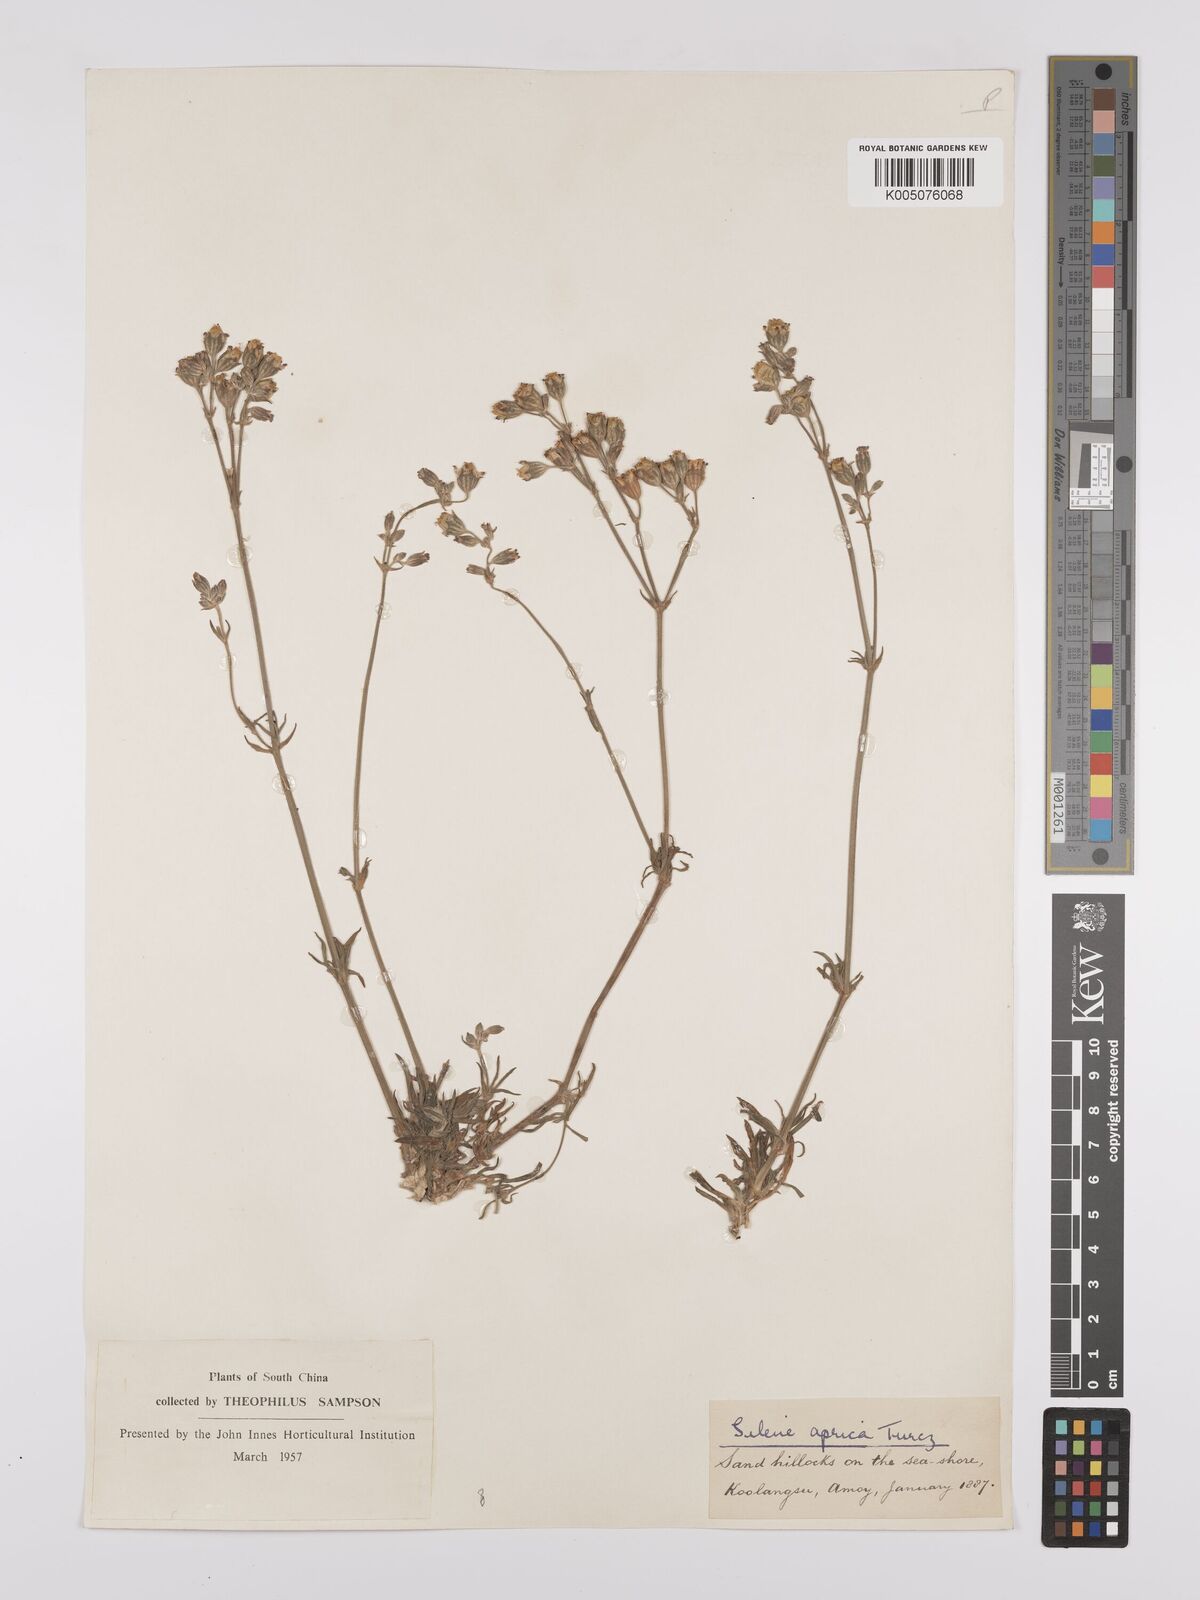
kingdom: Plantae
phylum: Tracheophyta
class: Magnoliopsida
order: Caryophyllales
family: Caryophyllaceae
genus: Silene
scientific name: Silene aprica
